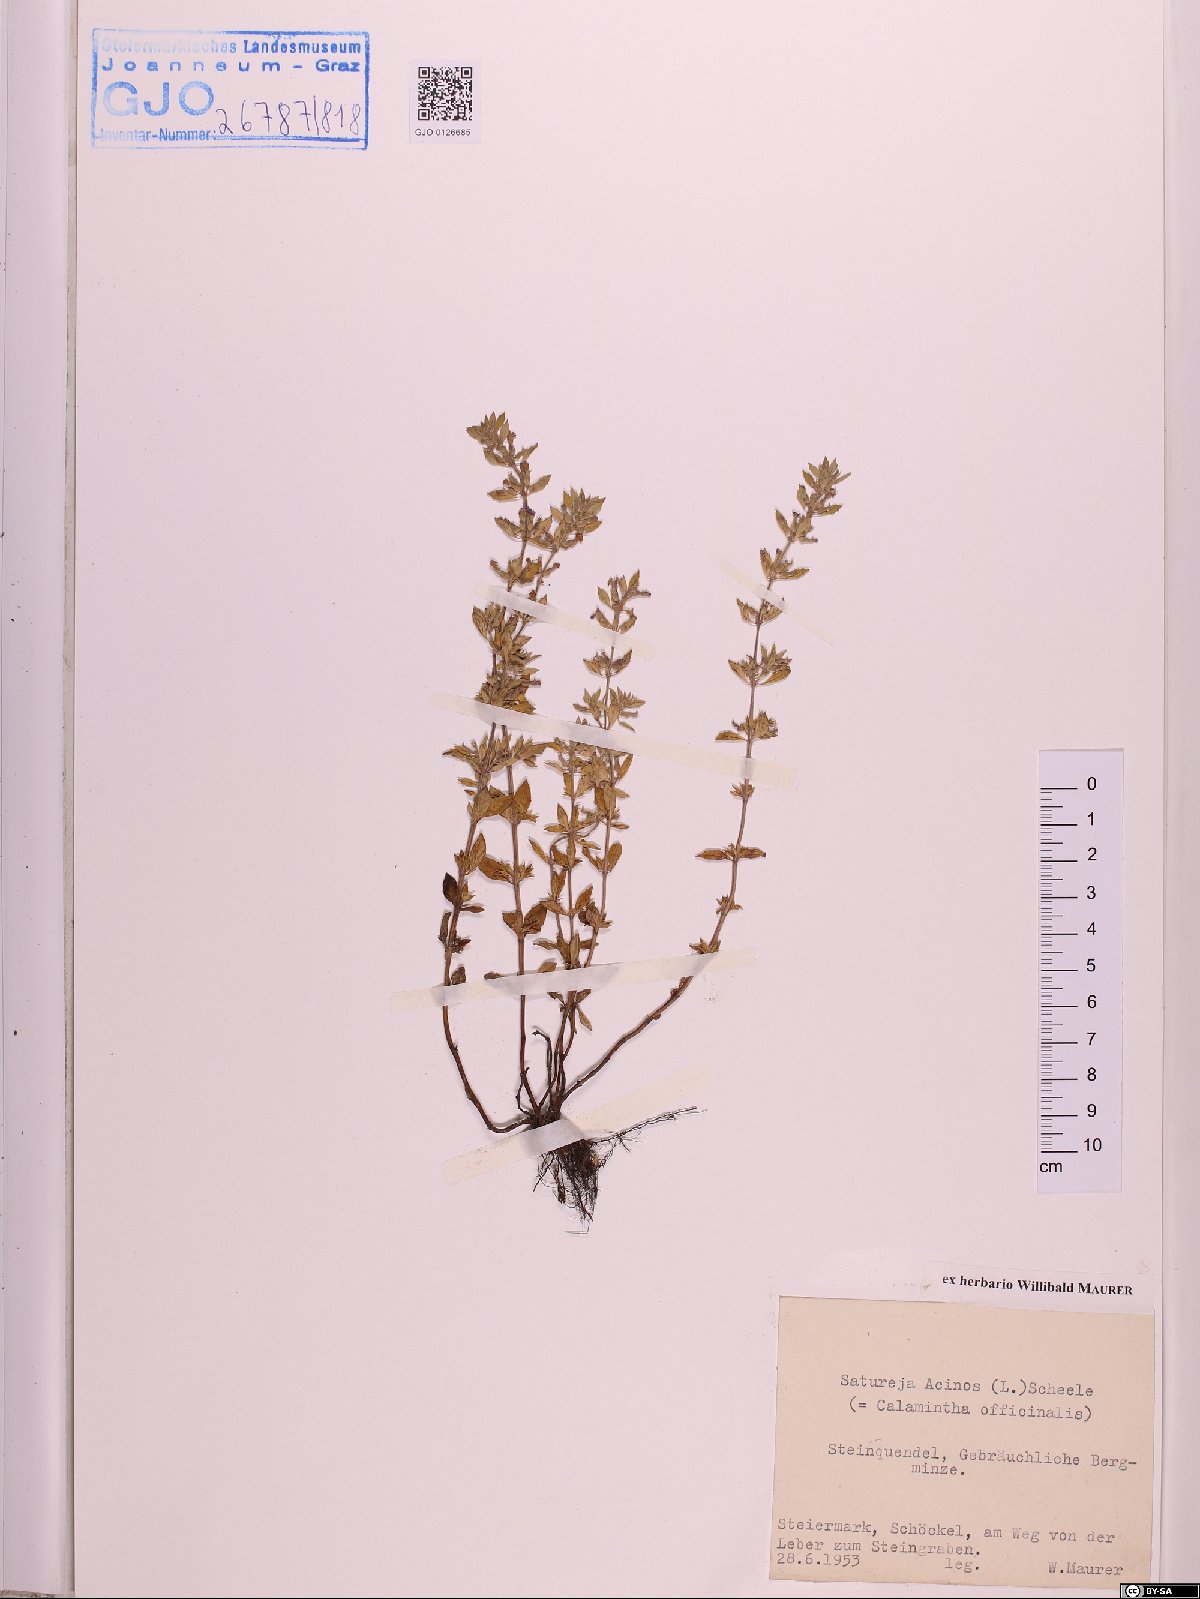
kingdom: Plantae
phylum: Tracheophyta
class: Magnoliopsida
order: Lamiales
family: Lamiaceae
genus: Clinopodium
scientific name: Clinopodium acinos
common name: Basil thyme
